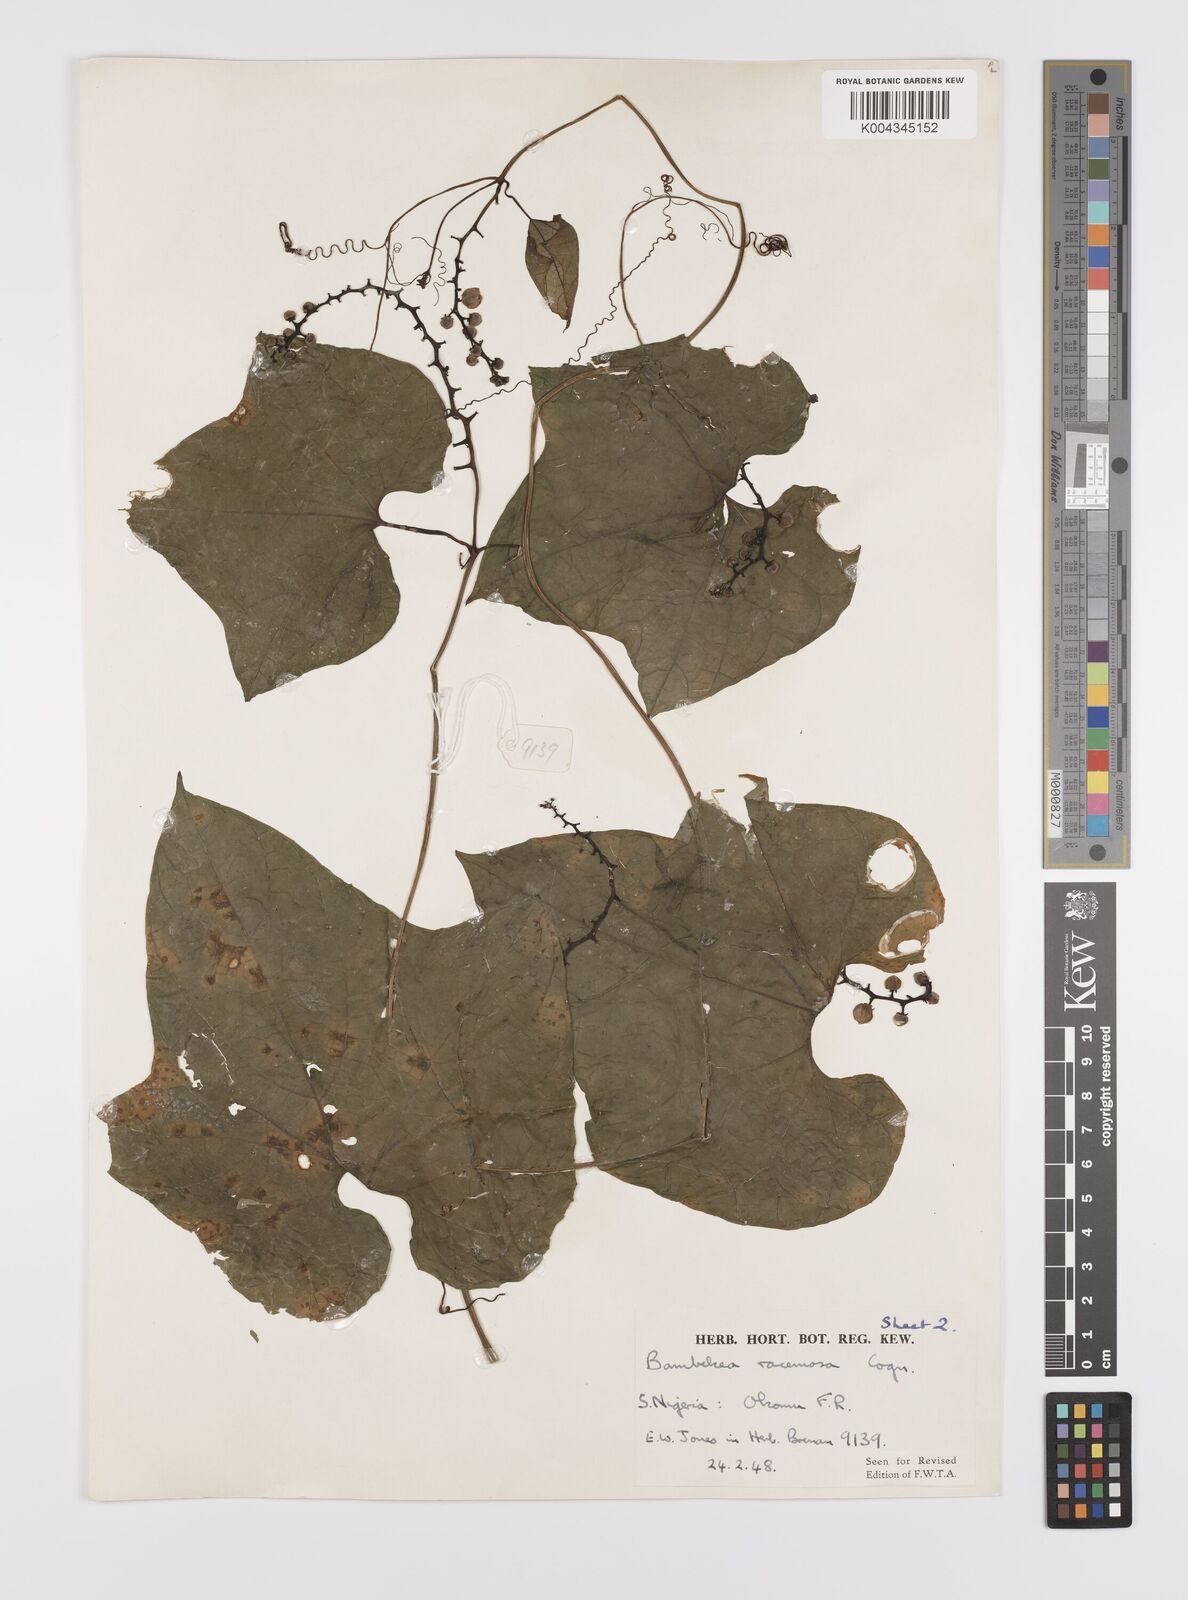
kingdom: Plantae
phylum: Tracheophyta
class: Magnoliopsida
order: Cucurbitales
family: Cucurbitaceae
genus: Bambekea
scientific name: Bambekea racemosa
